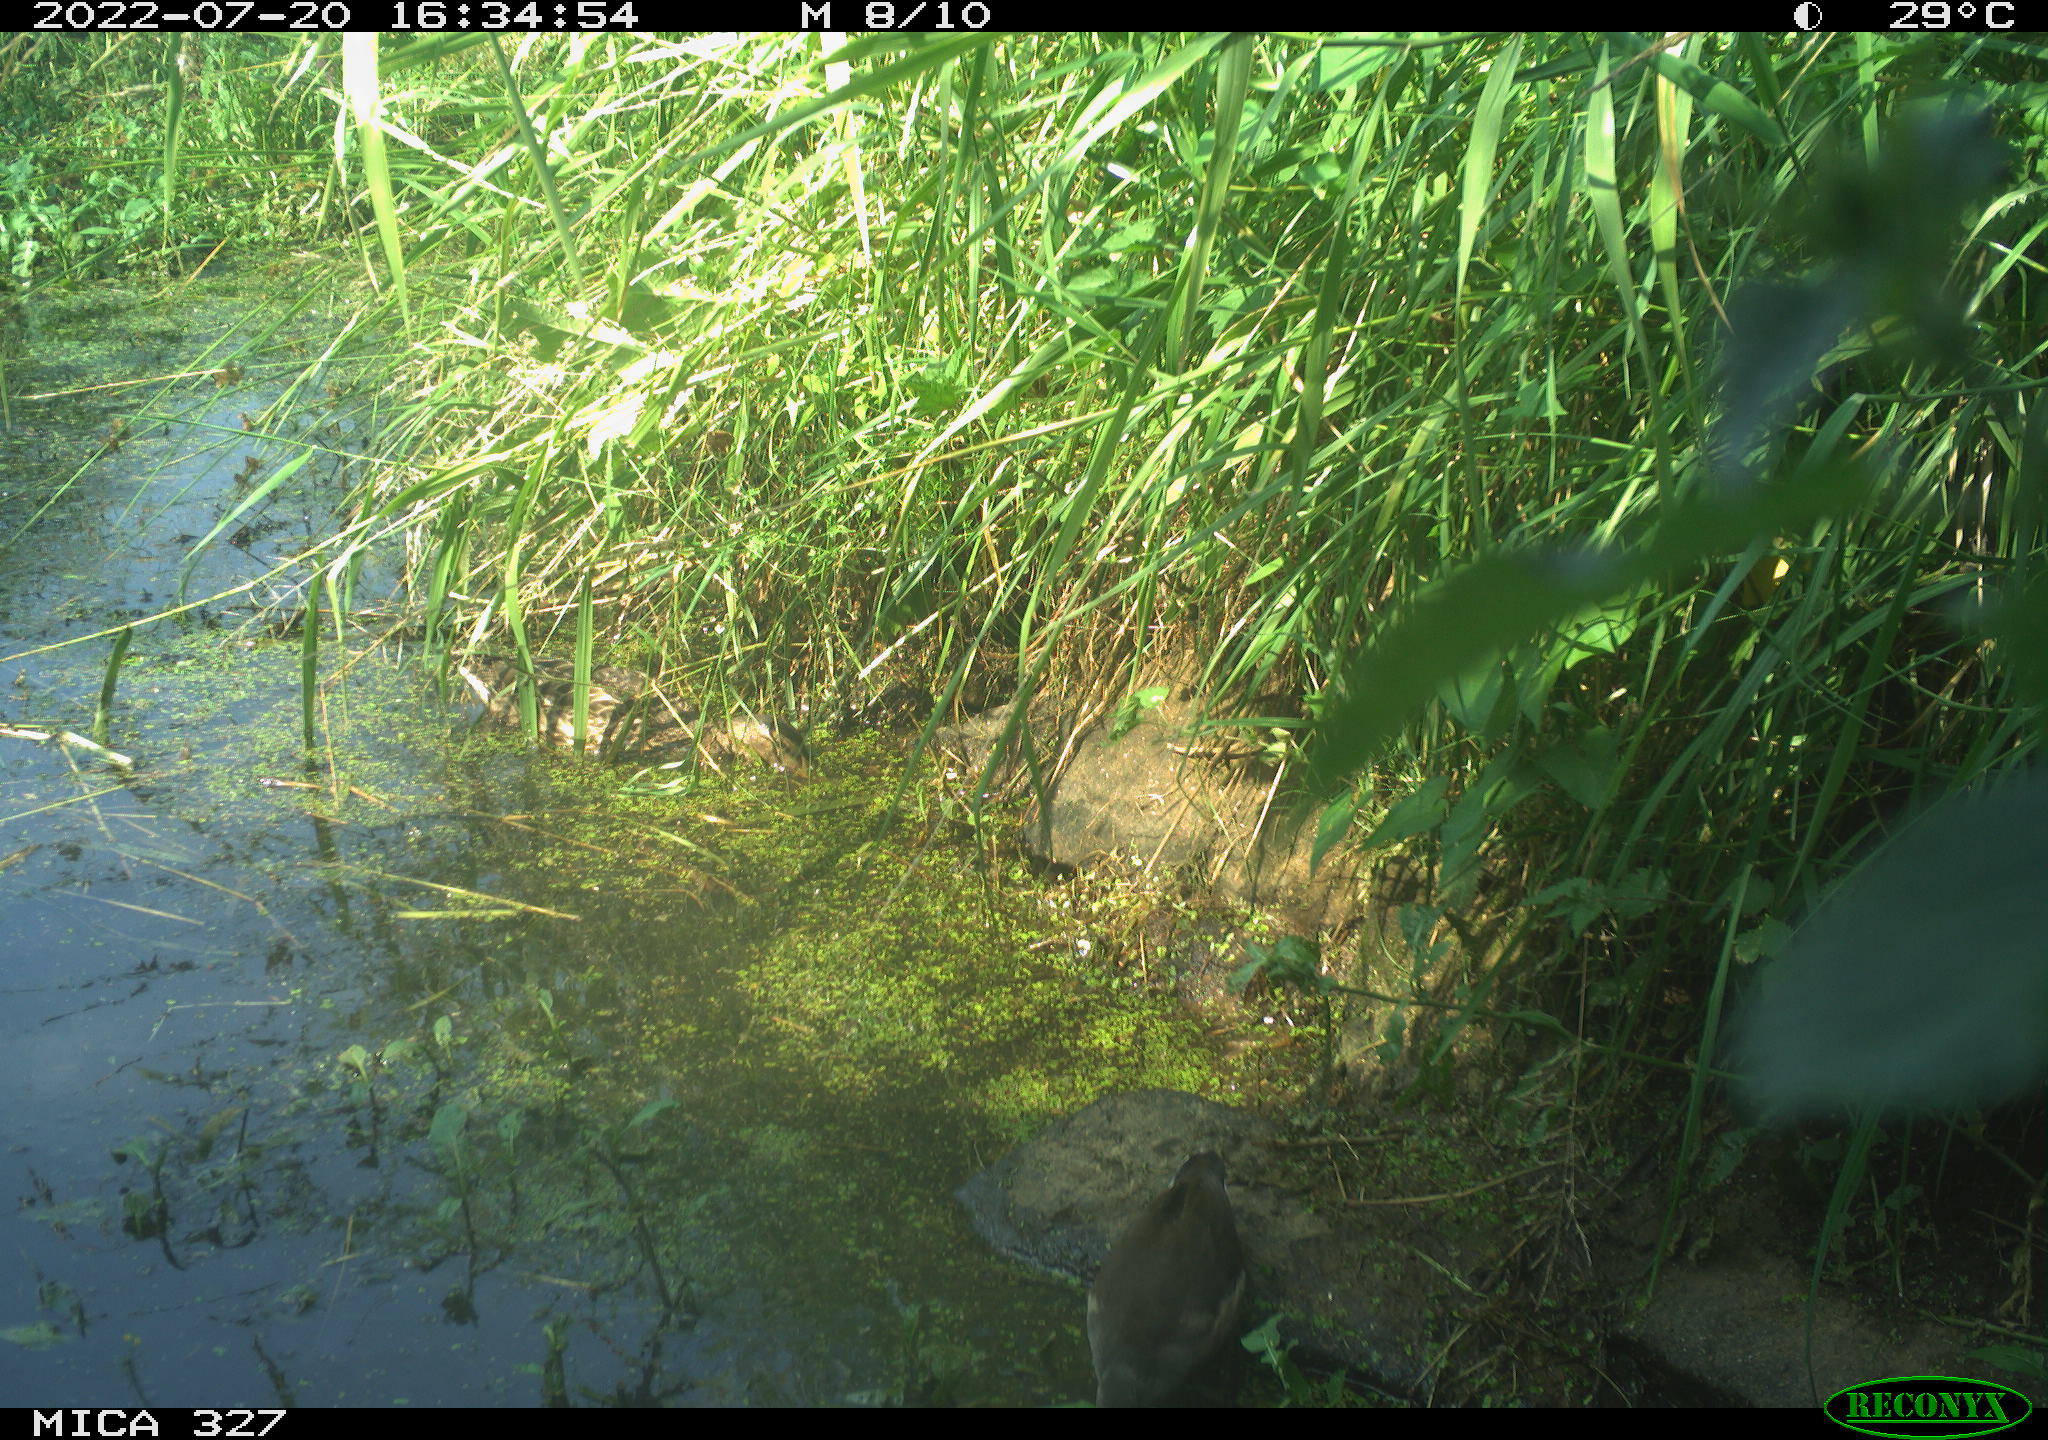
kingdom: Animalia
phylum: Chordata
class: Aves
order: Anseriformes
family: Anatidae
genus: Anas
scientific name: Anas platyrhynchos
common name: Mallard
